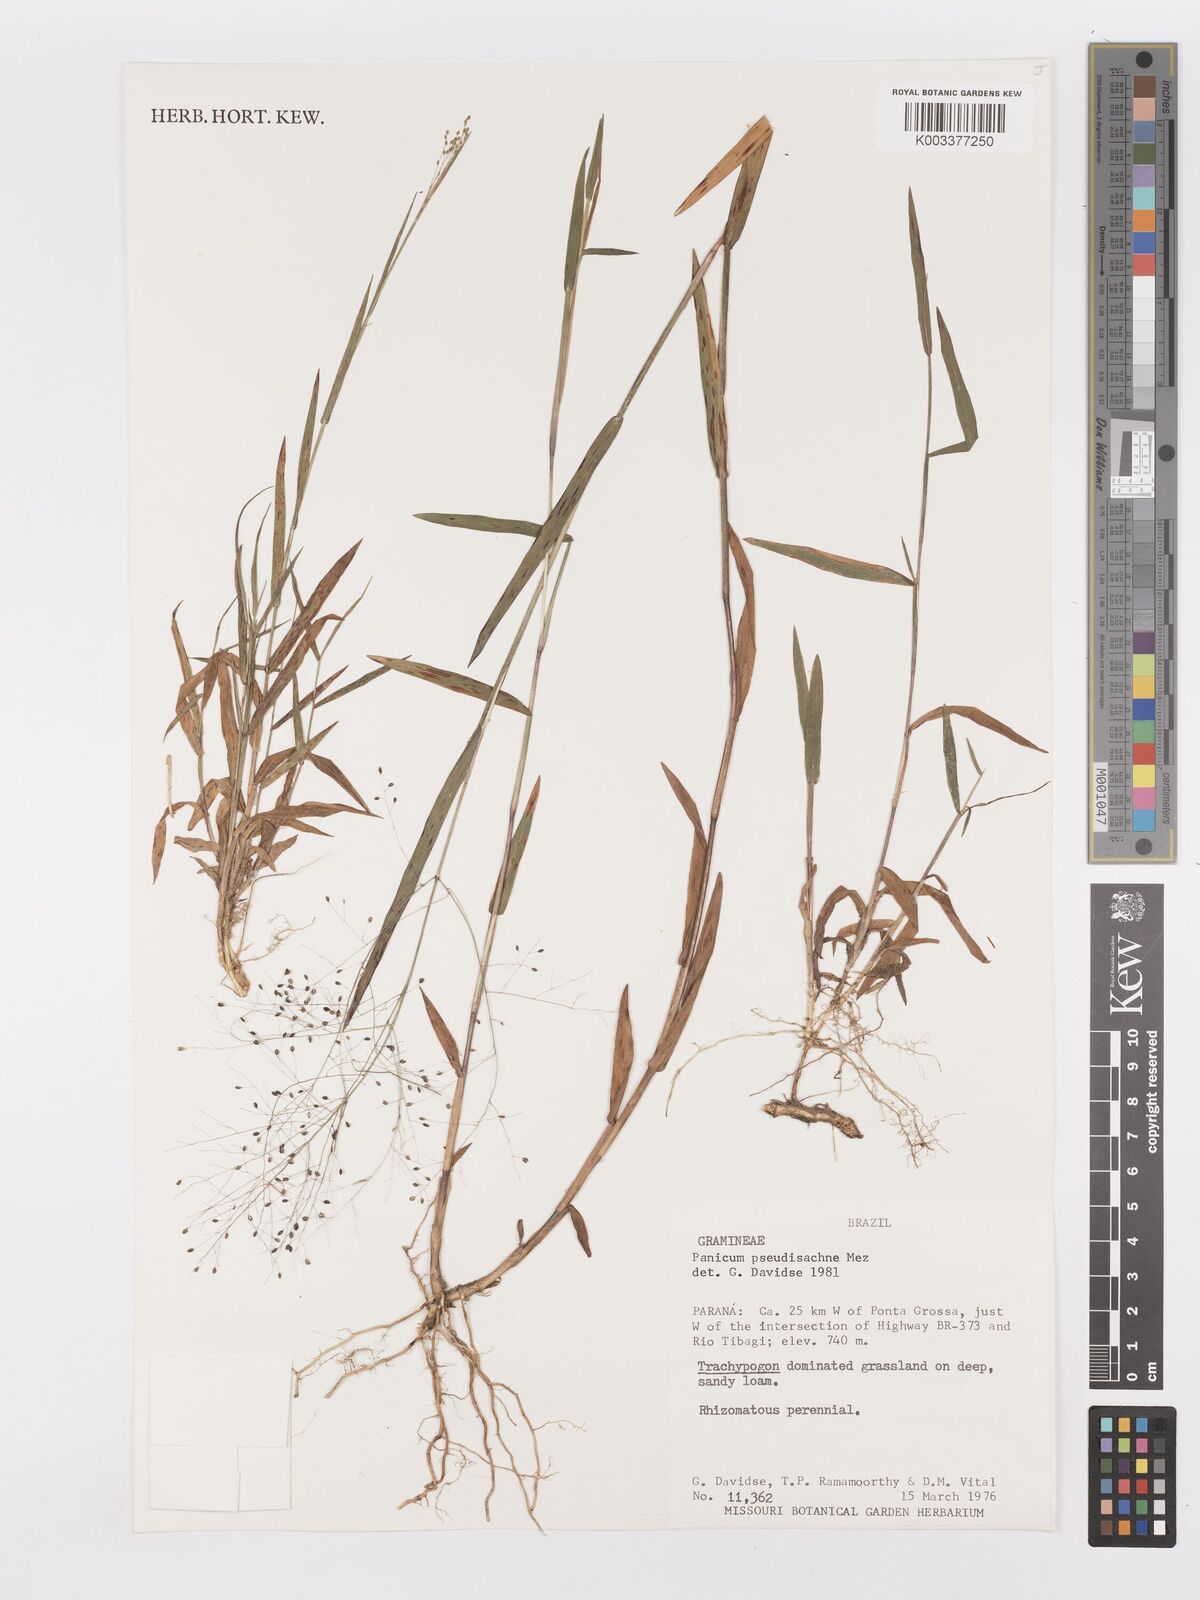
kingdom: Plantae
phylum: Tracheophyta
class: Liliopsida
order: Poales
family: Poaceae
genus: Trichanthecium
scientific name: Trichanthecium pseudisachne
